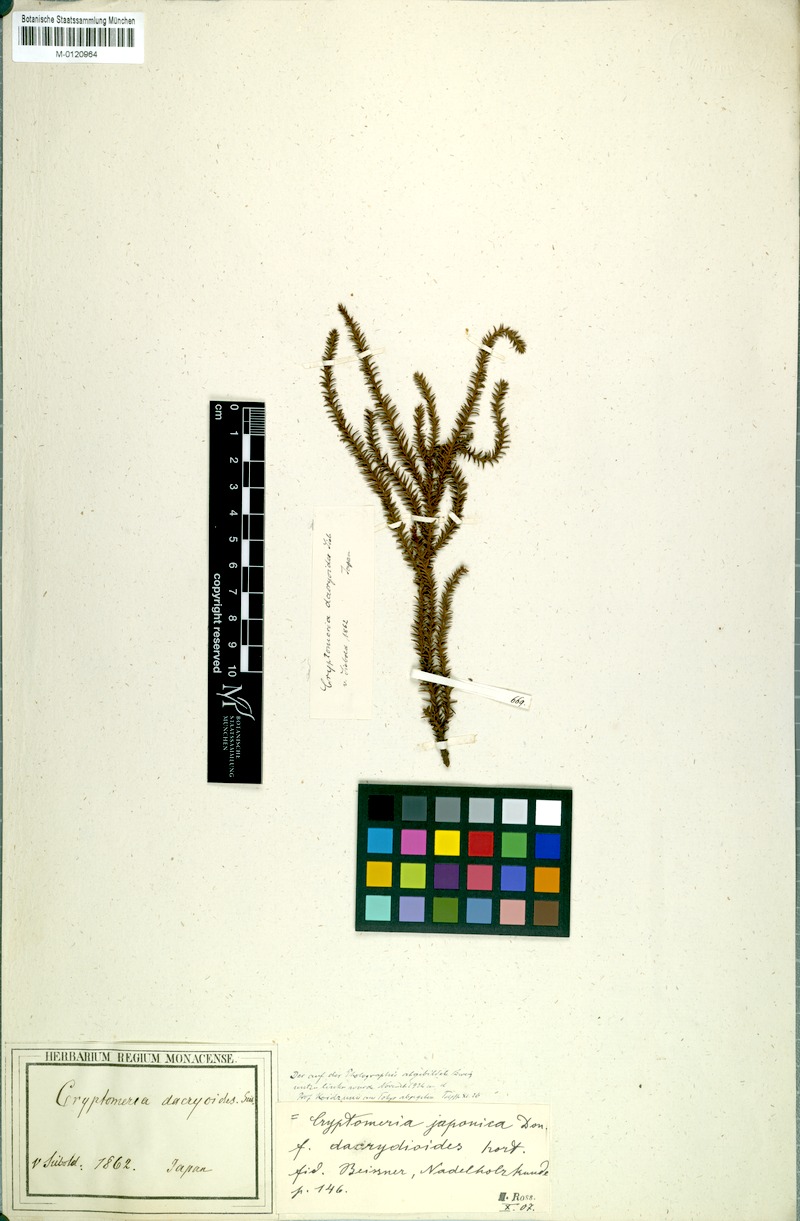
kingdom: Plantae
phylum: Tracheophyta
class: Pinopsida
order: Pinales
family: Cupressaceae
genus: Cryptomeria
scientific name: Cryptomeria
